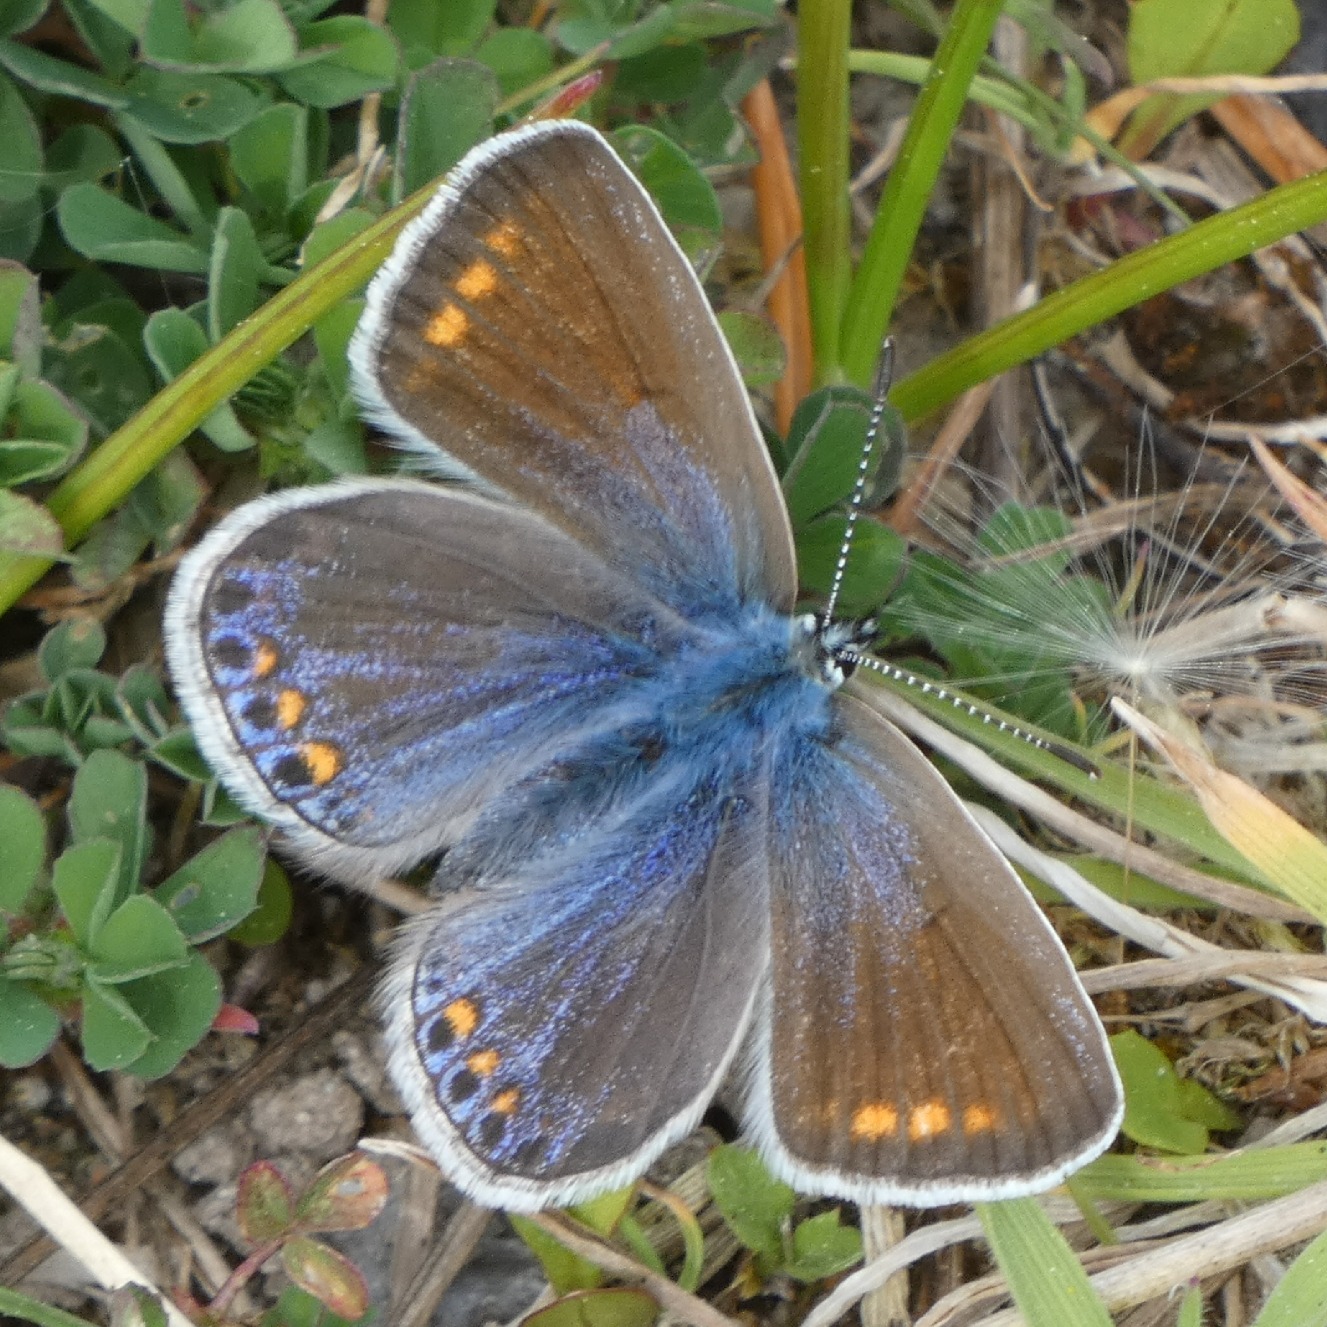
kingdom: Animalia
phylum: Arthropoda
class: Insecta
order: Lepidoptera
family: Lycaenidae
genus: Polyommatus
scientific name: Polyommatus icarus
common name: Almindelig blåfugl
